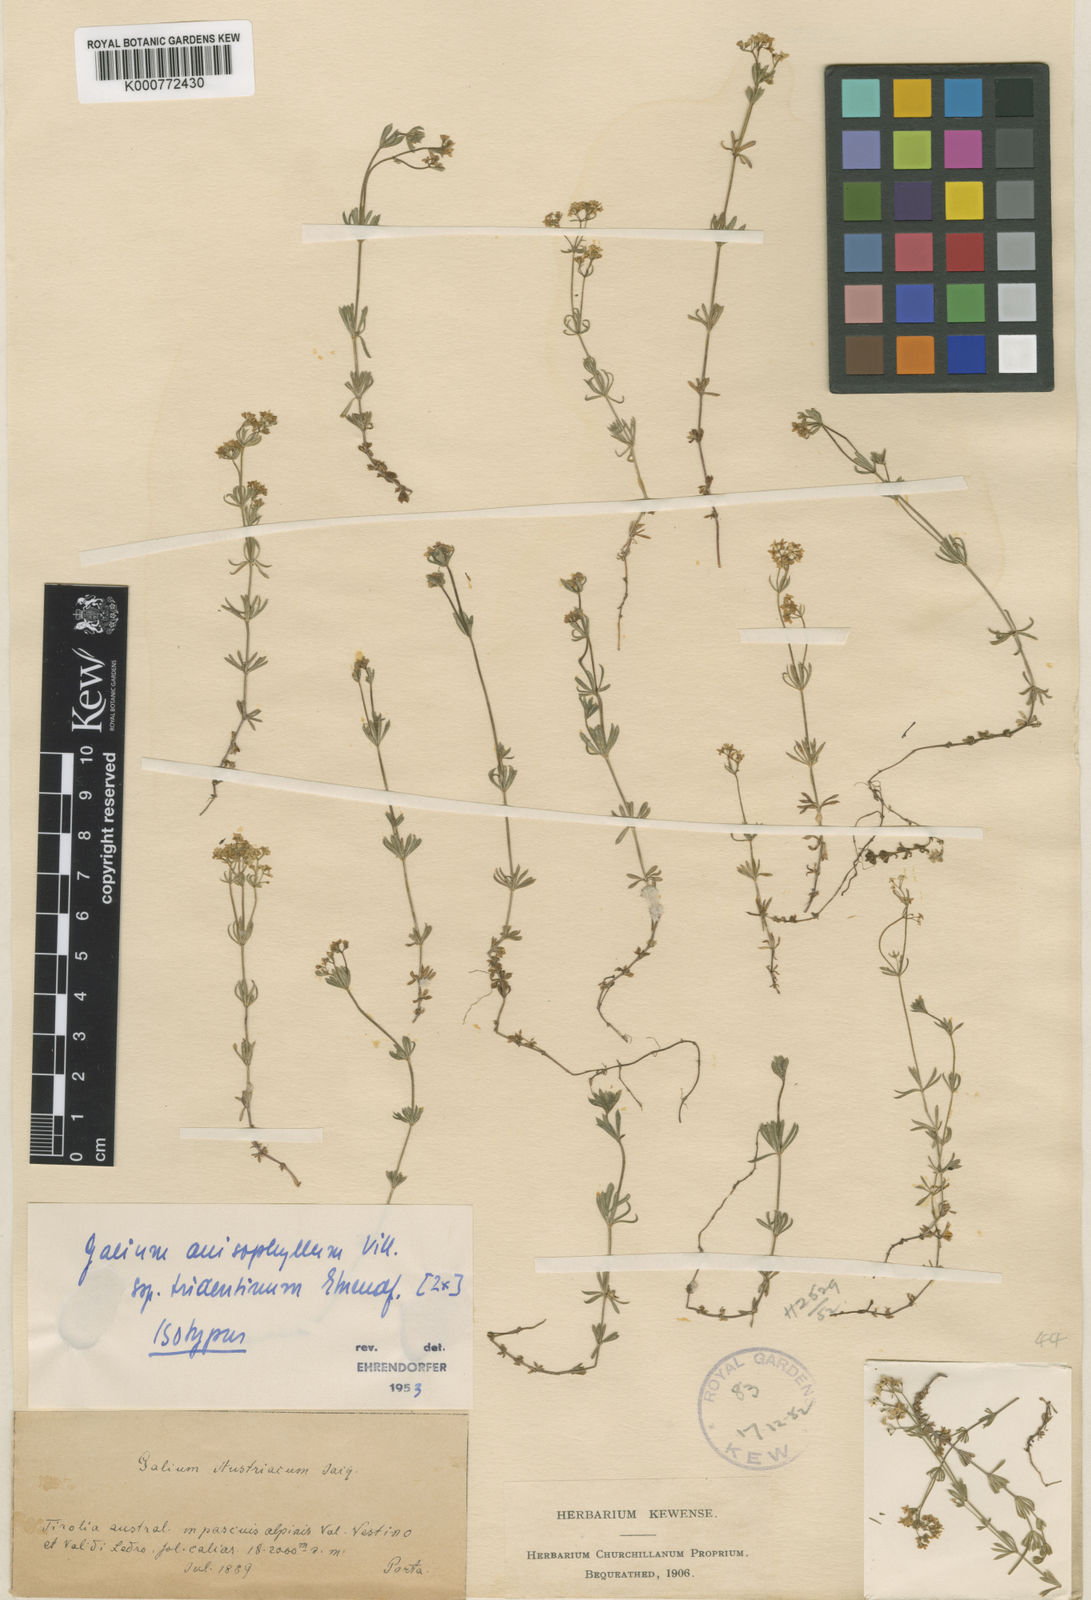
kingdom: Plantae
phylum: Tracheophyta
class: Magnoliopsida
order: Gentianales
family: Rubiaceae
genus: Galium
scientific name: Galium anisophyllon
